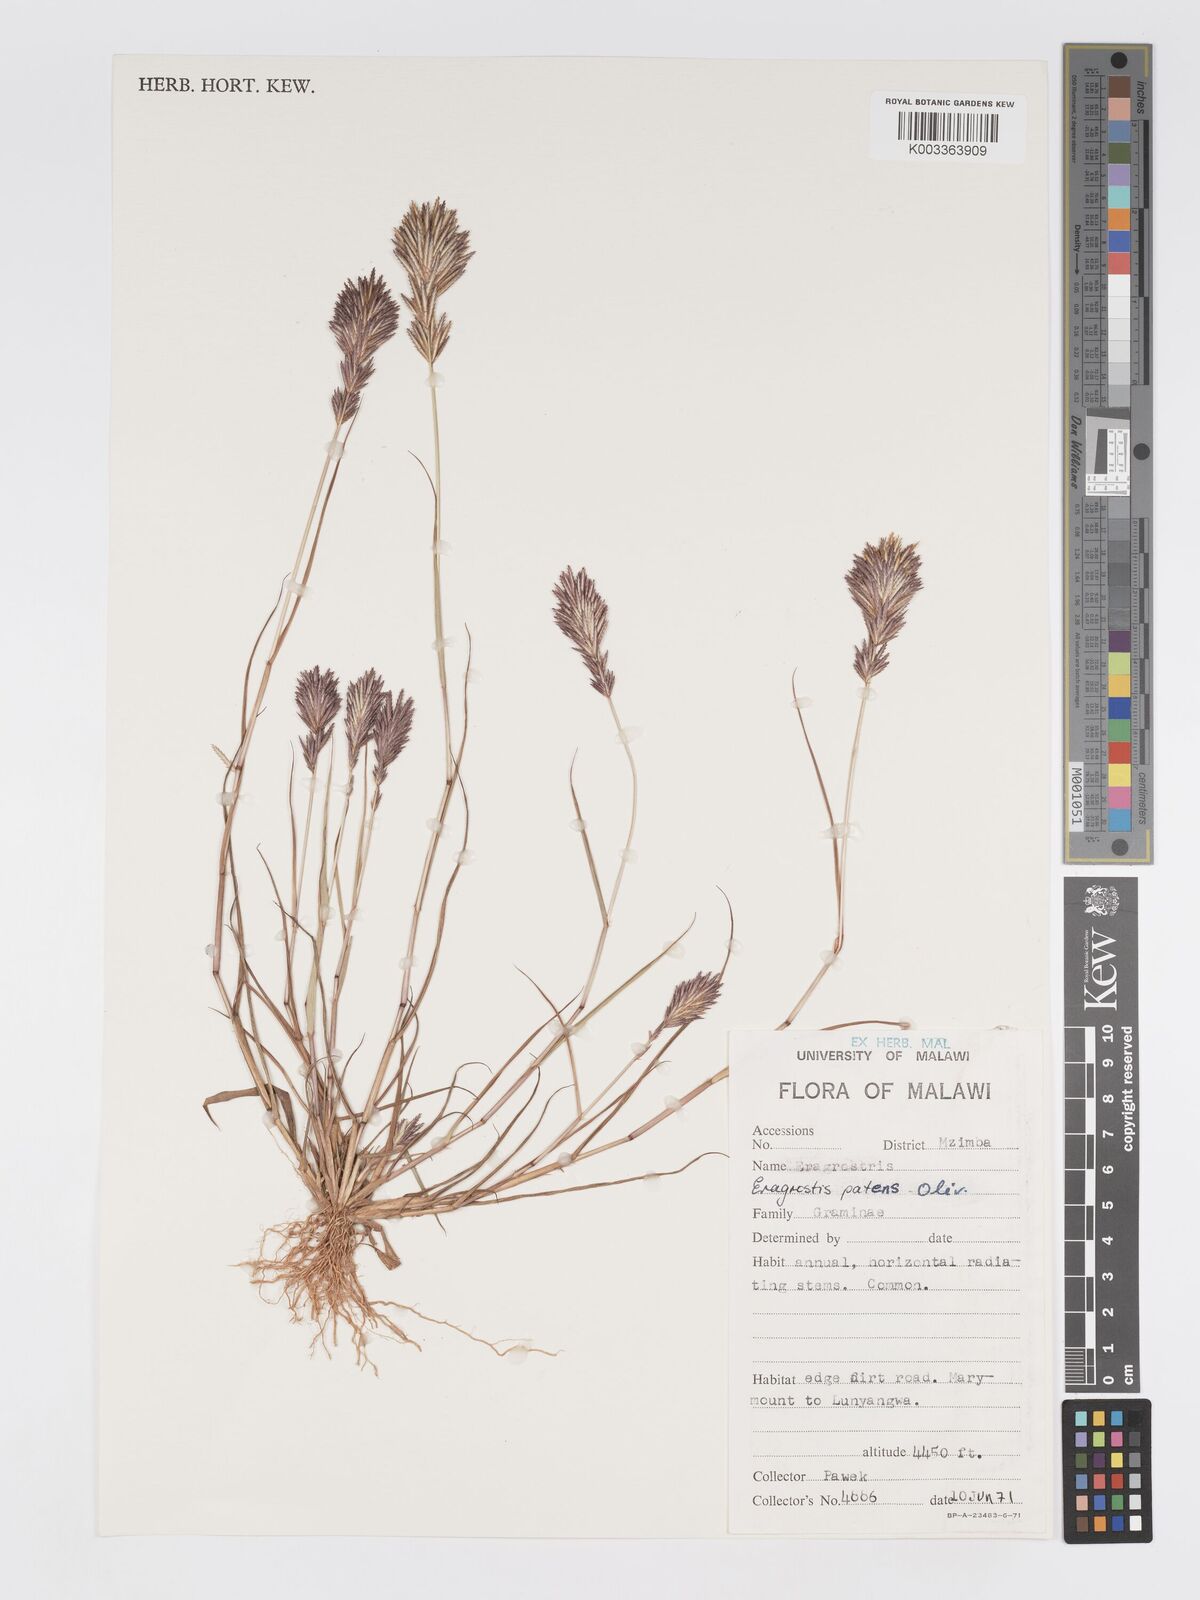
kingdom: Plantae
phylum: Tracheophyta
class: Liliopsida
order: Poales
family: Poaceae
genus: Eragrostis
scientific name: Eragrostis patens
